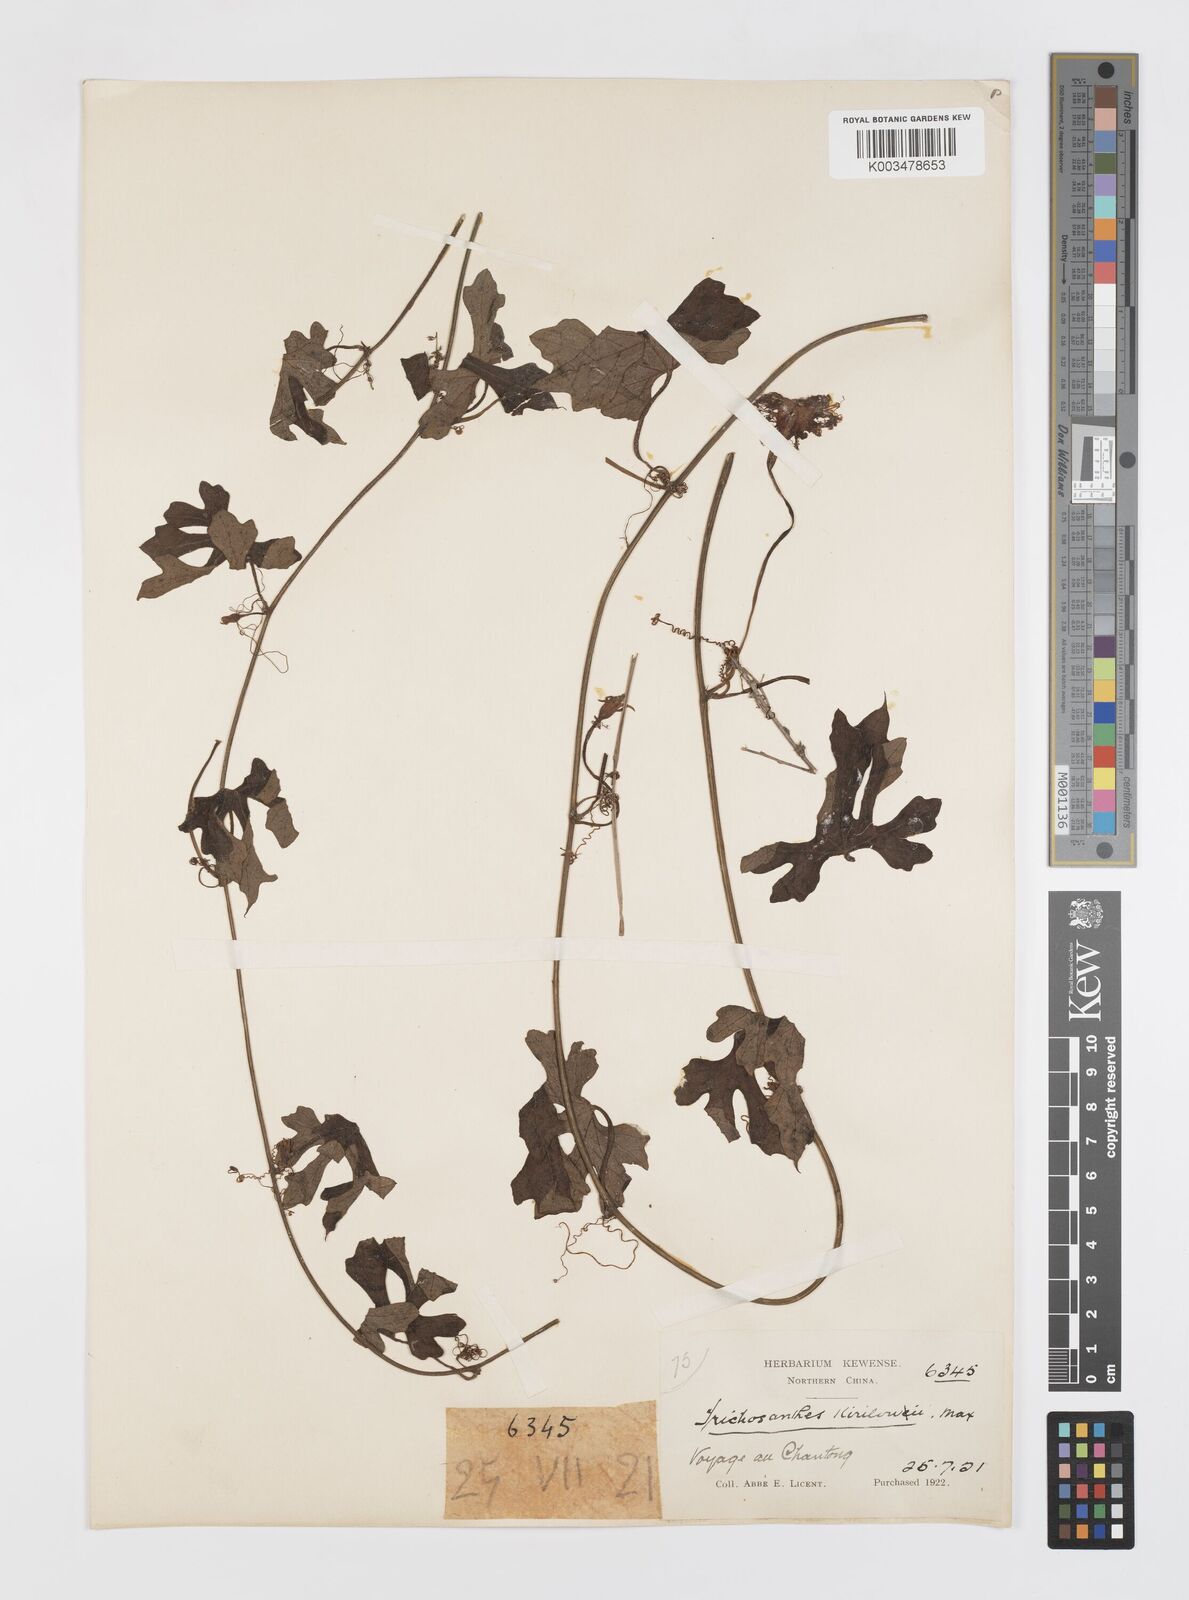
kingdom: Plantae
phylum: Tracheophyta
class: Magnoliopsida
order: Cucurbitales
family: Cucurbitaceae
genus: Trichosanthes
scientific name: Trichosanthes kirilowii
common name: Chinese-cucumber
